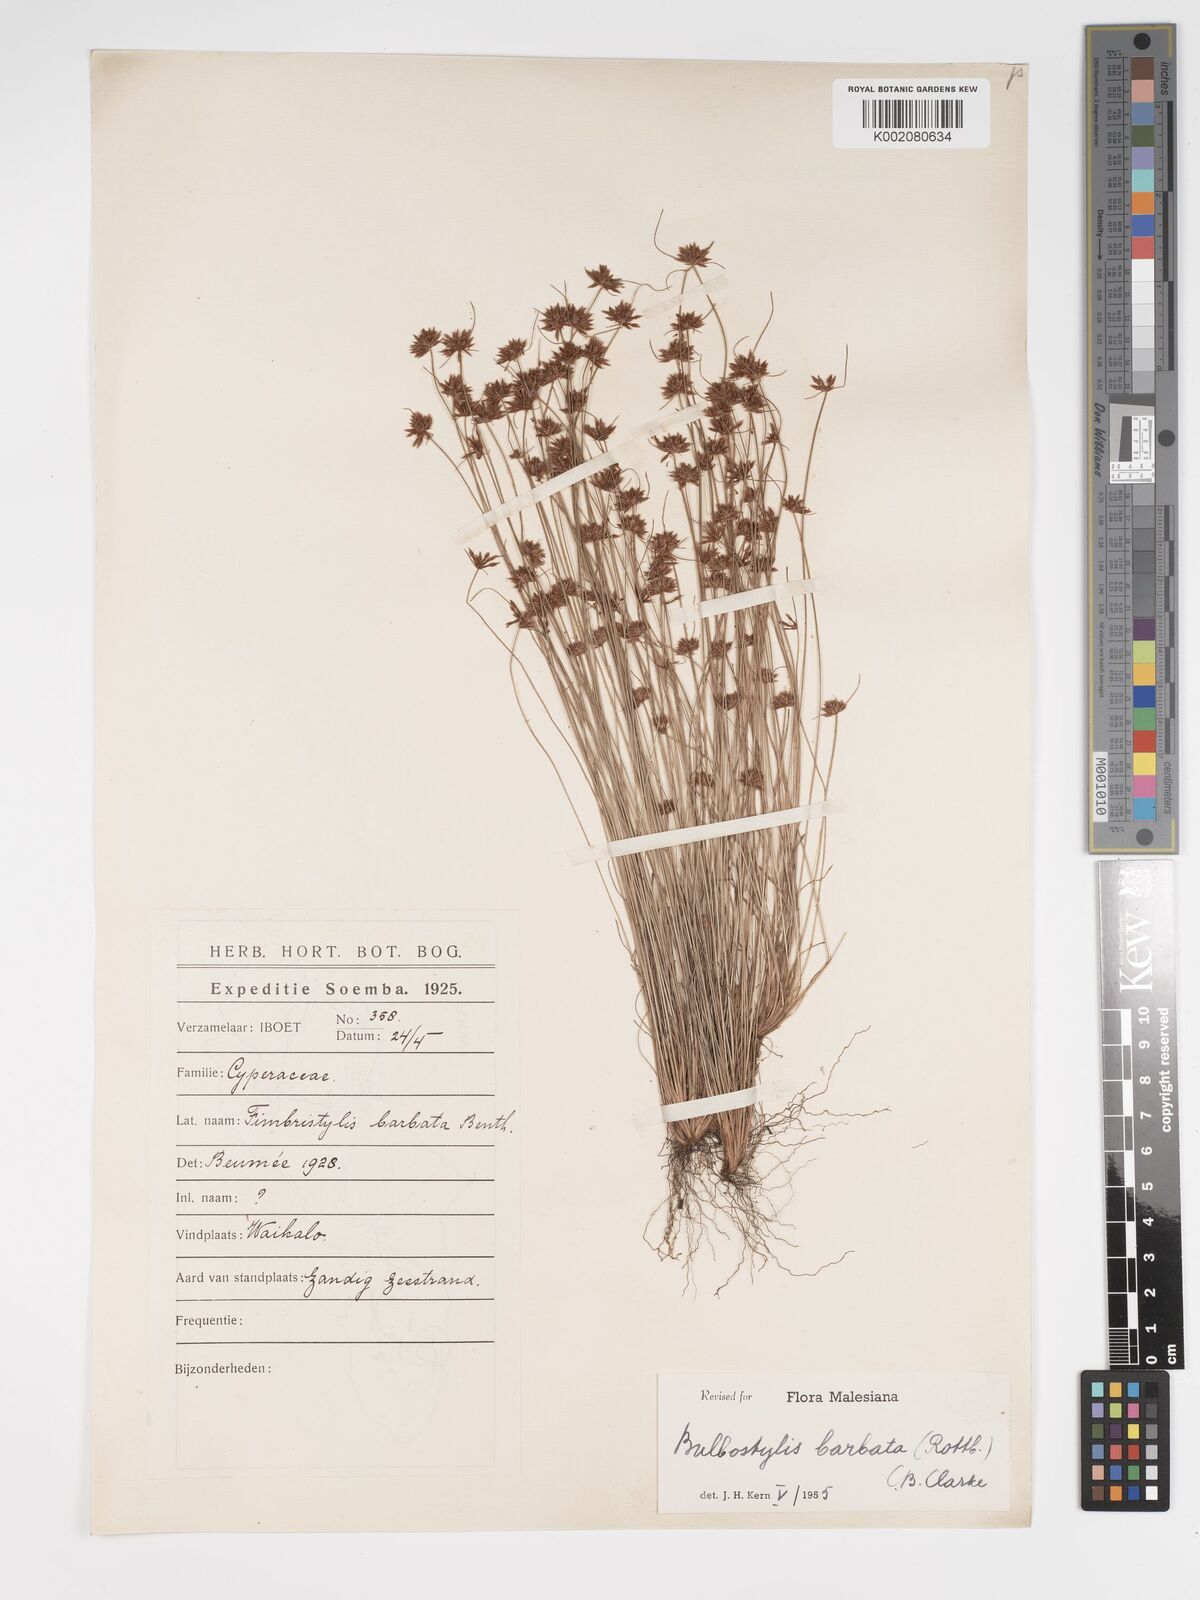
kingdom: Plantae
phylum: Tracheophyta
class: Liliopsida
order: Poales
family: Cyperaceae
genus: Bulbostylis
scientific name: Bulbostylis barbata
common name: Watergrass
